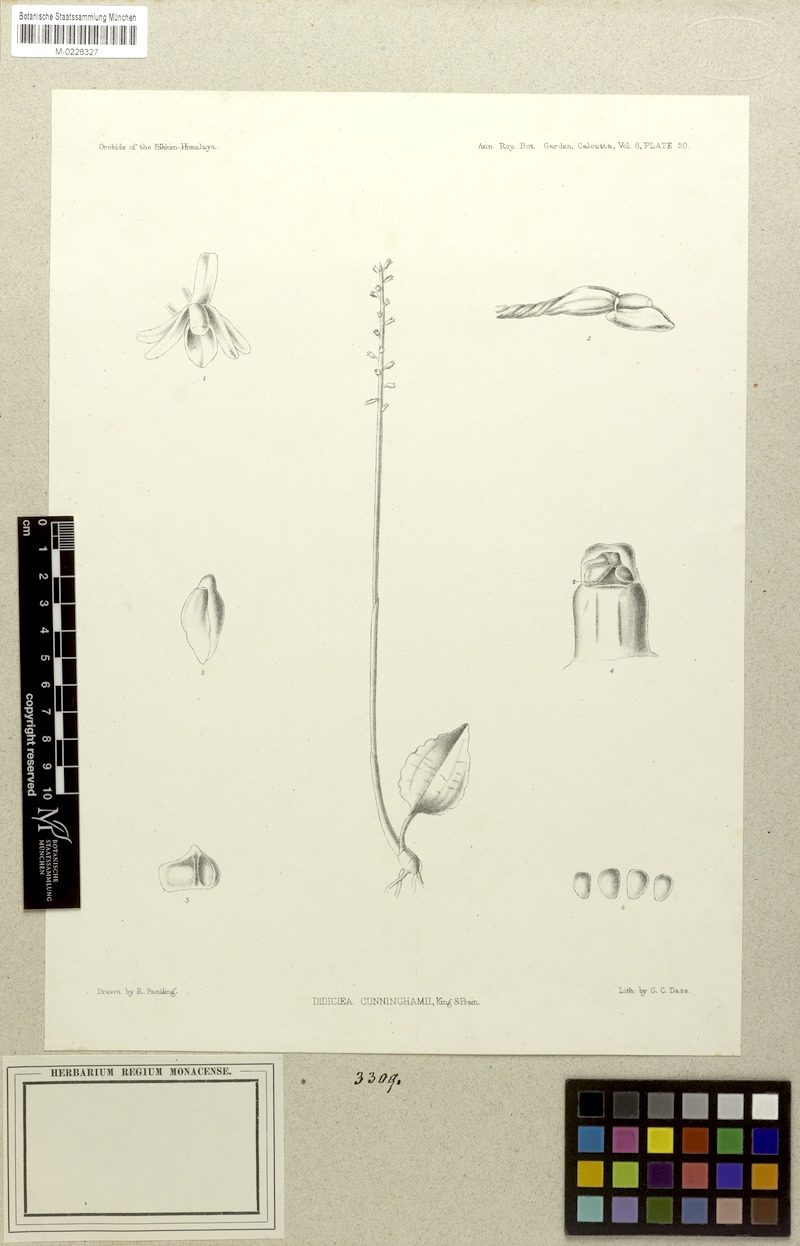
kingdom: Plantae
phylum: Tracheophyta
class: Liliopsida
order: Asparagales
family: Orchidaceae
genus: Tipularia
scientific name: Tipularia josephi
